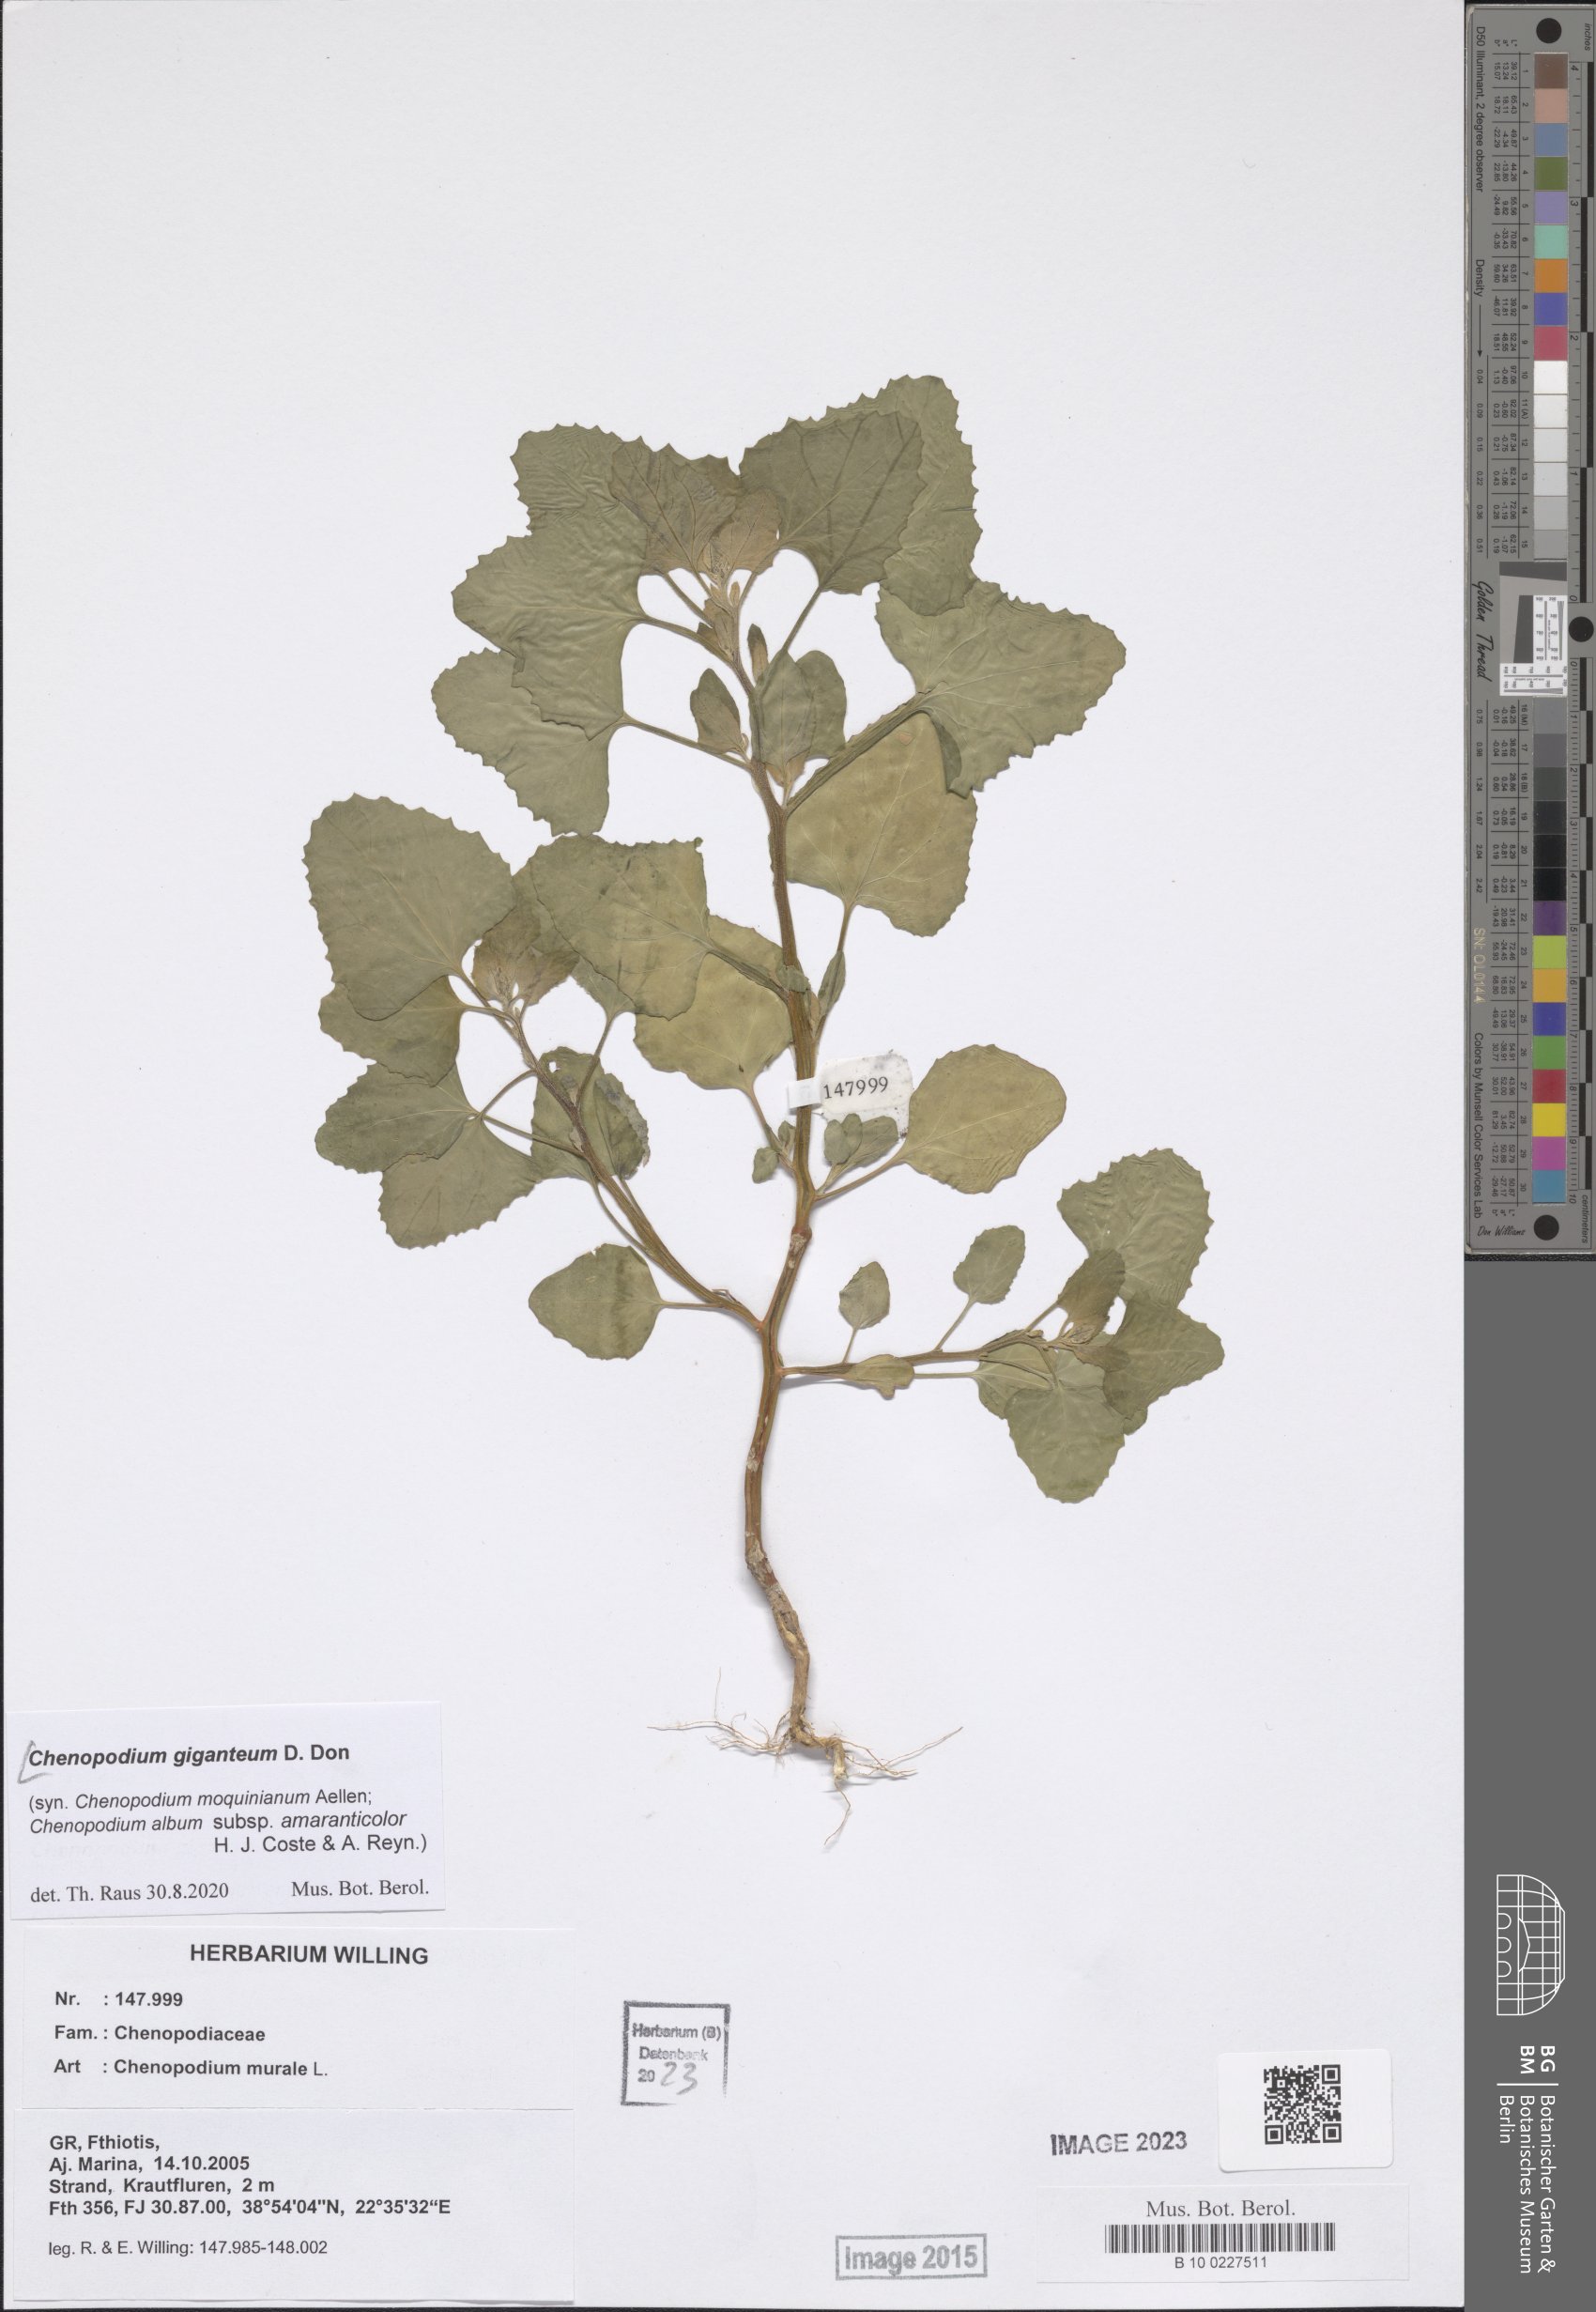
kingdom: Plantae
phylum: Tracheophyta
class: Magnoliopsida
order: Caryophyllales
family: Amaranthaceae
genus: Chenopodium
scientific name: Chenopodium giganteum
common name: Magentaspreen
